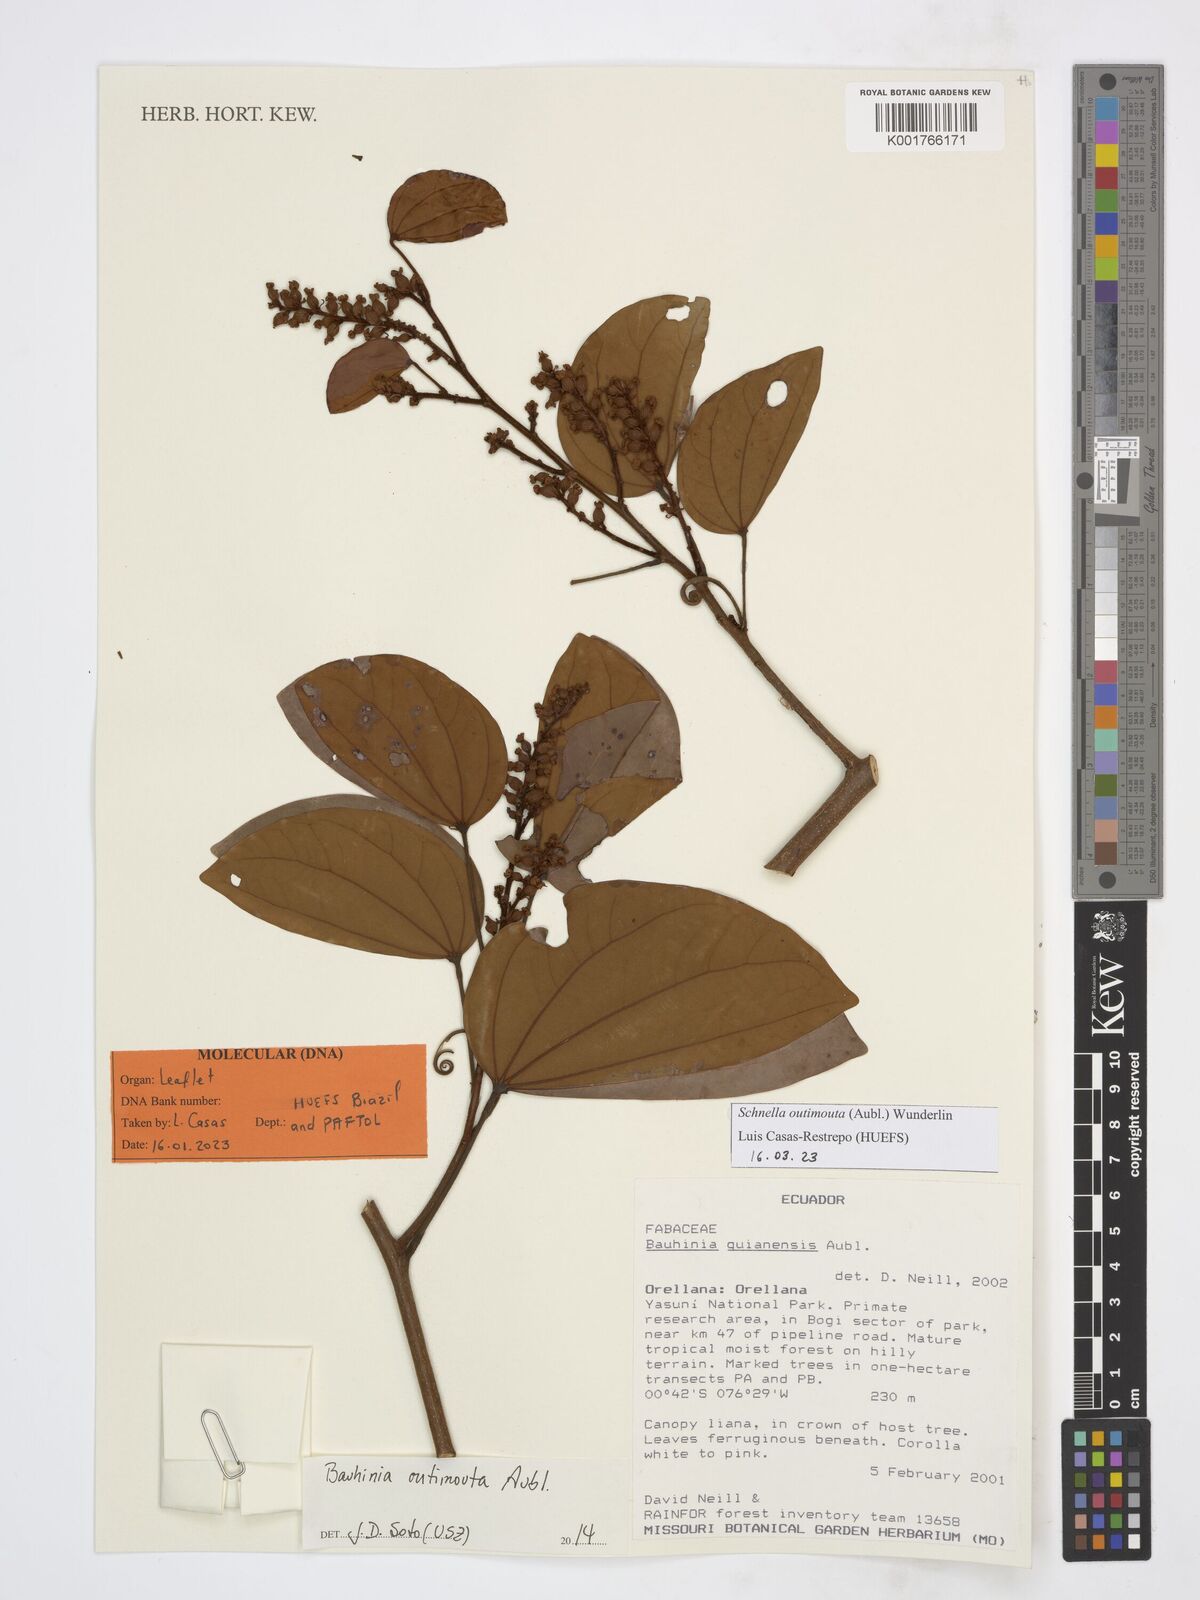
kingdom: Plantae
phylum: Tracheophyta
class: Magnoliopsida
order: Fabales
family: Fabaceae
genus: Schnella
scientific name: Schnella outimouta
